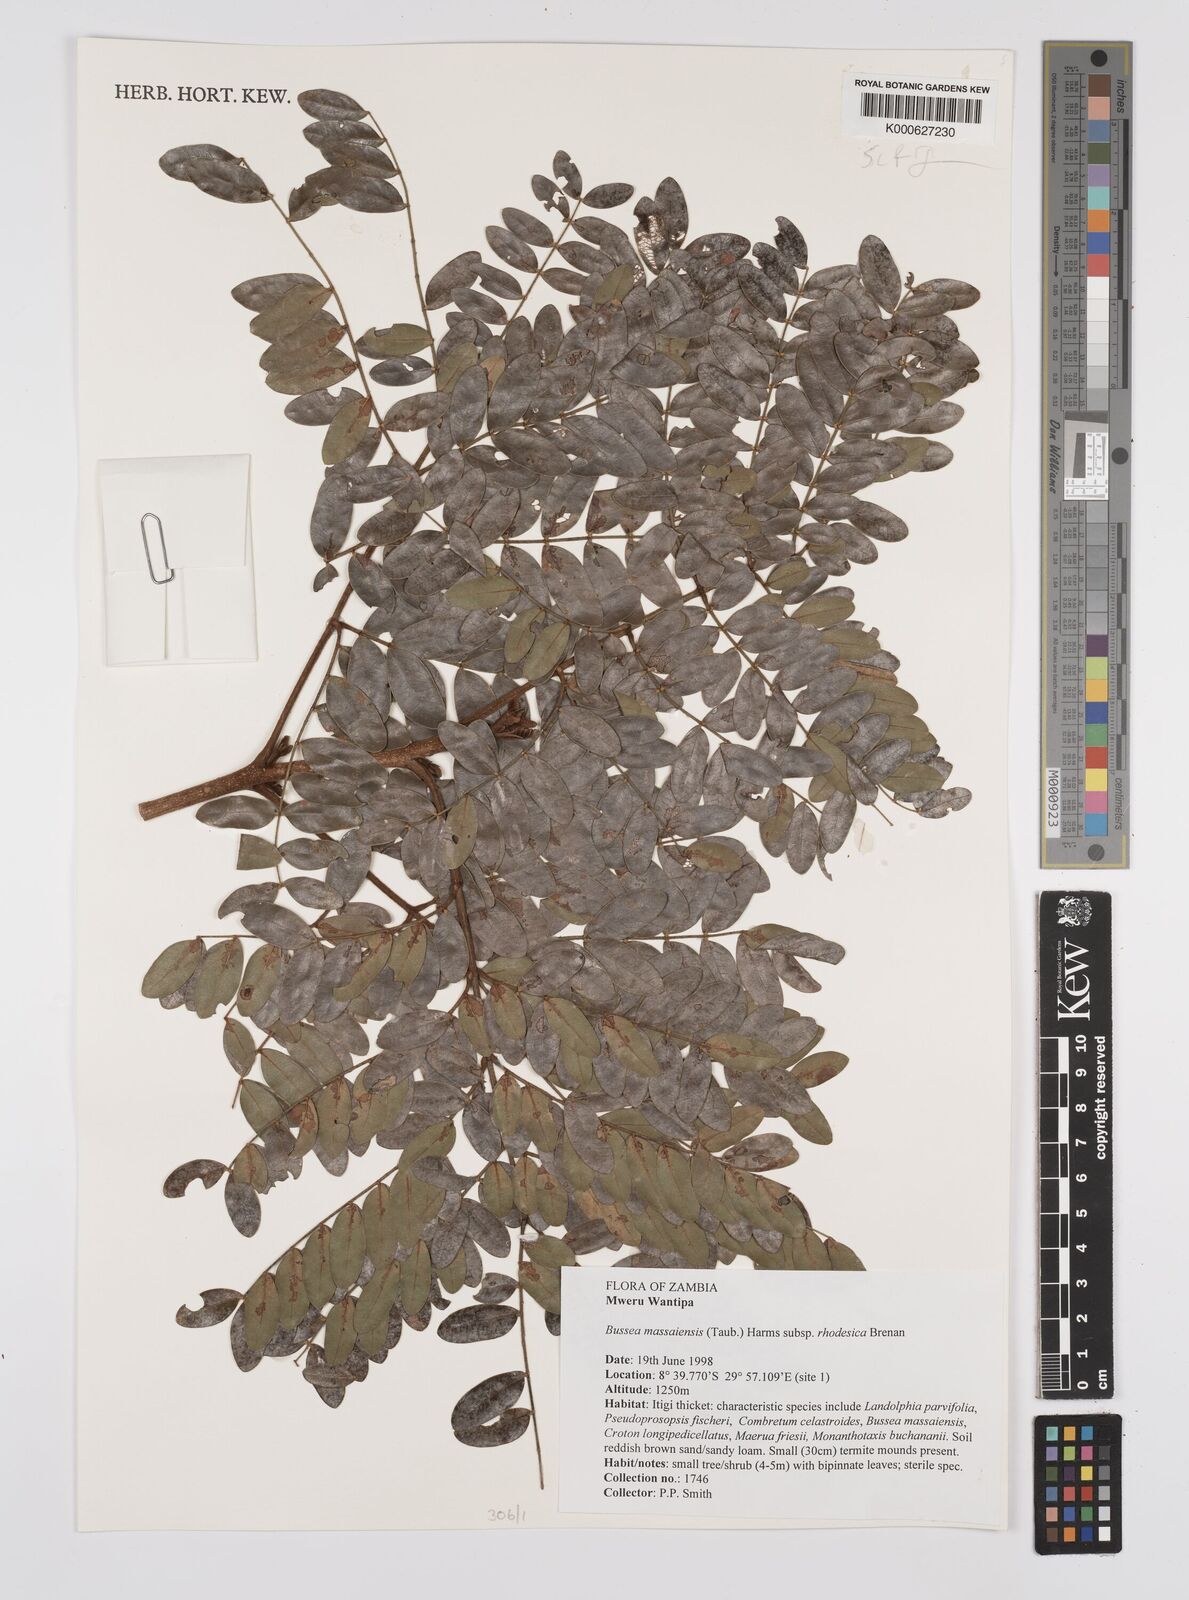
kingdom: Plantae
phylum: Tracheophyta
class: Magnoliopsida
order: Fabales
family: Fabaceae
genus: Bussea
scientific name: Bussea
